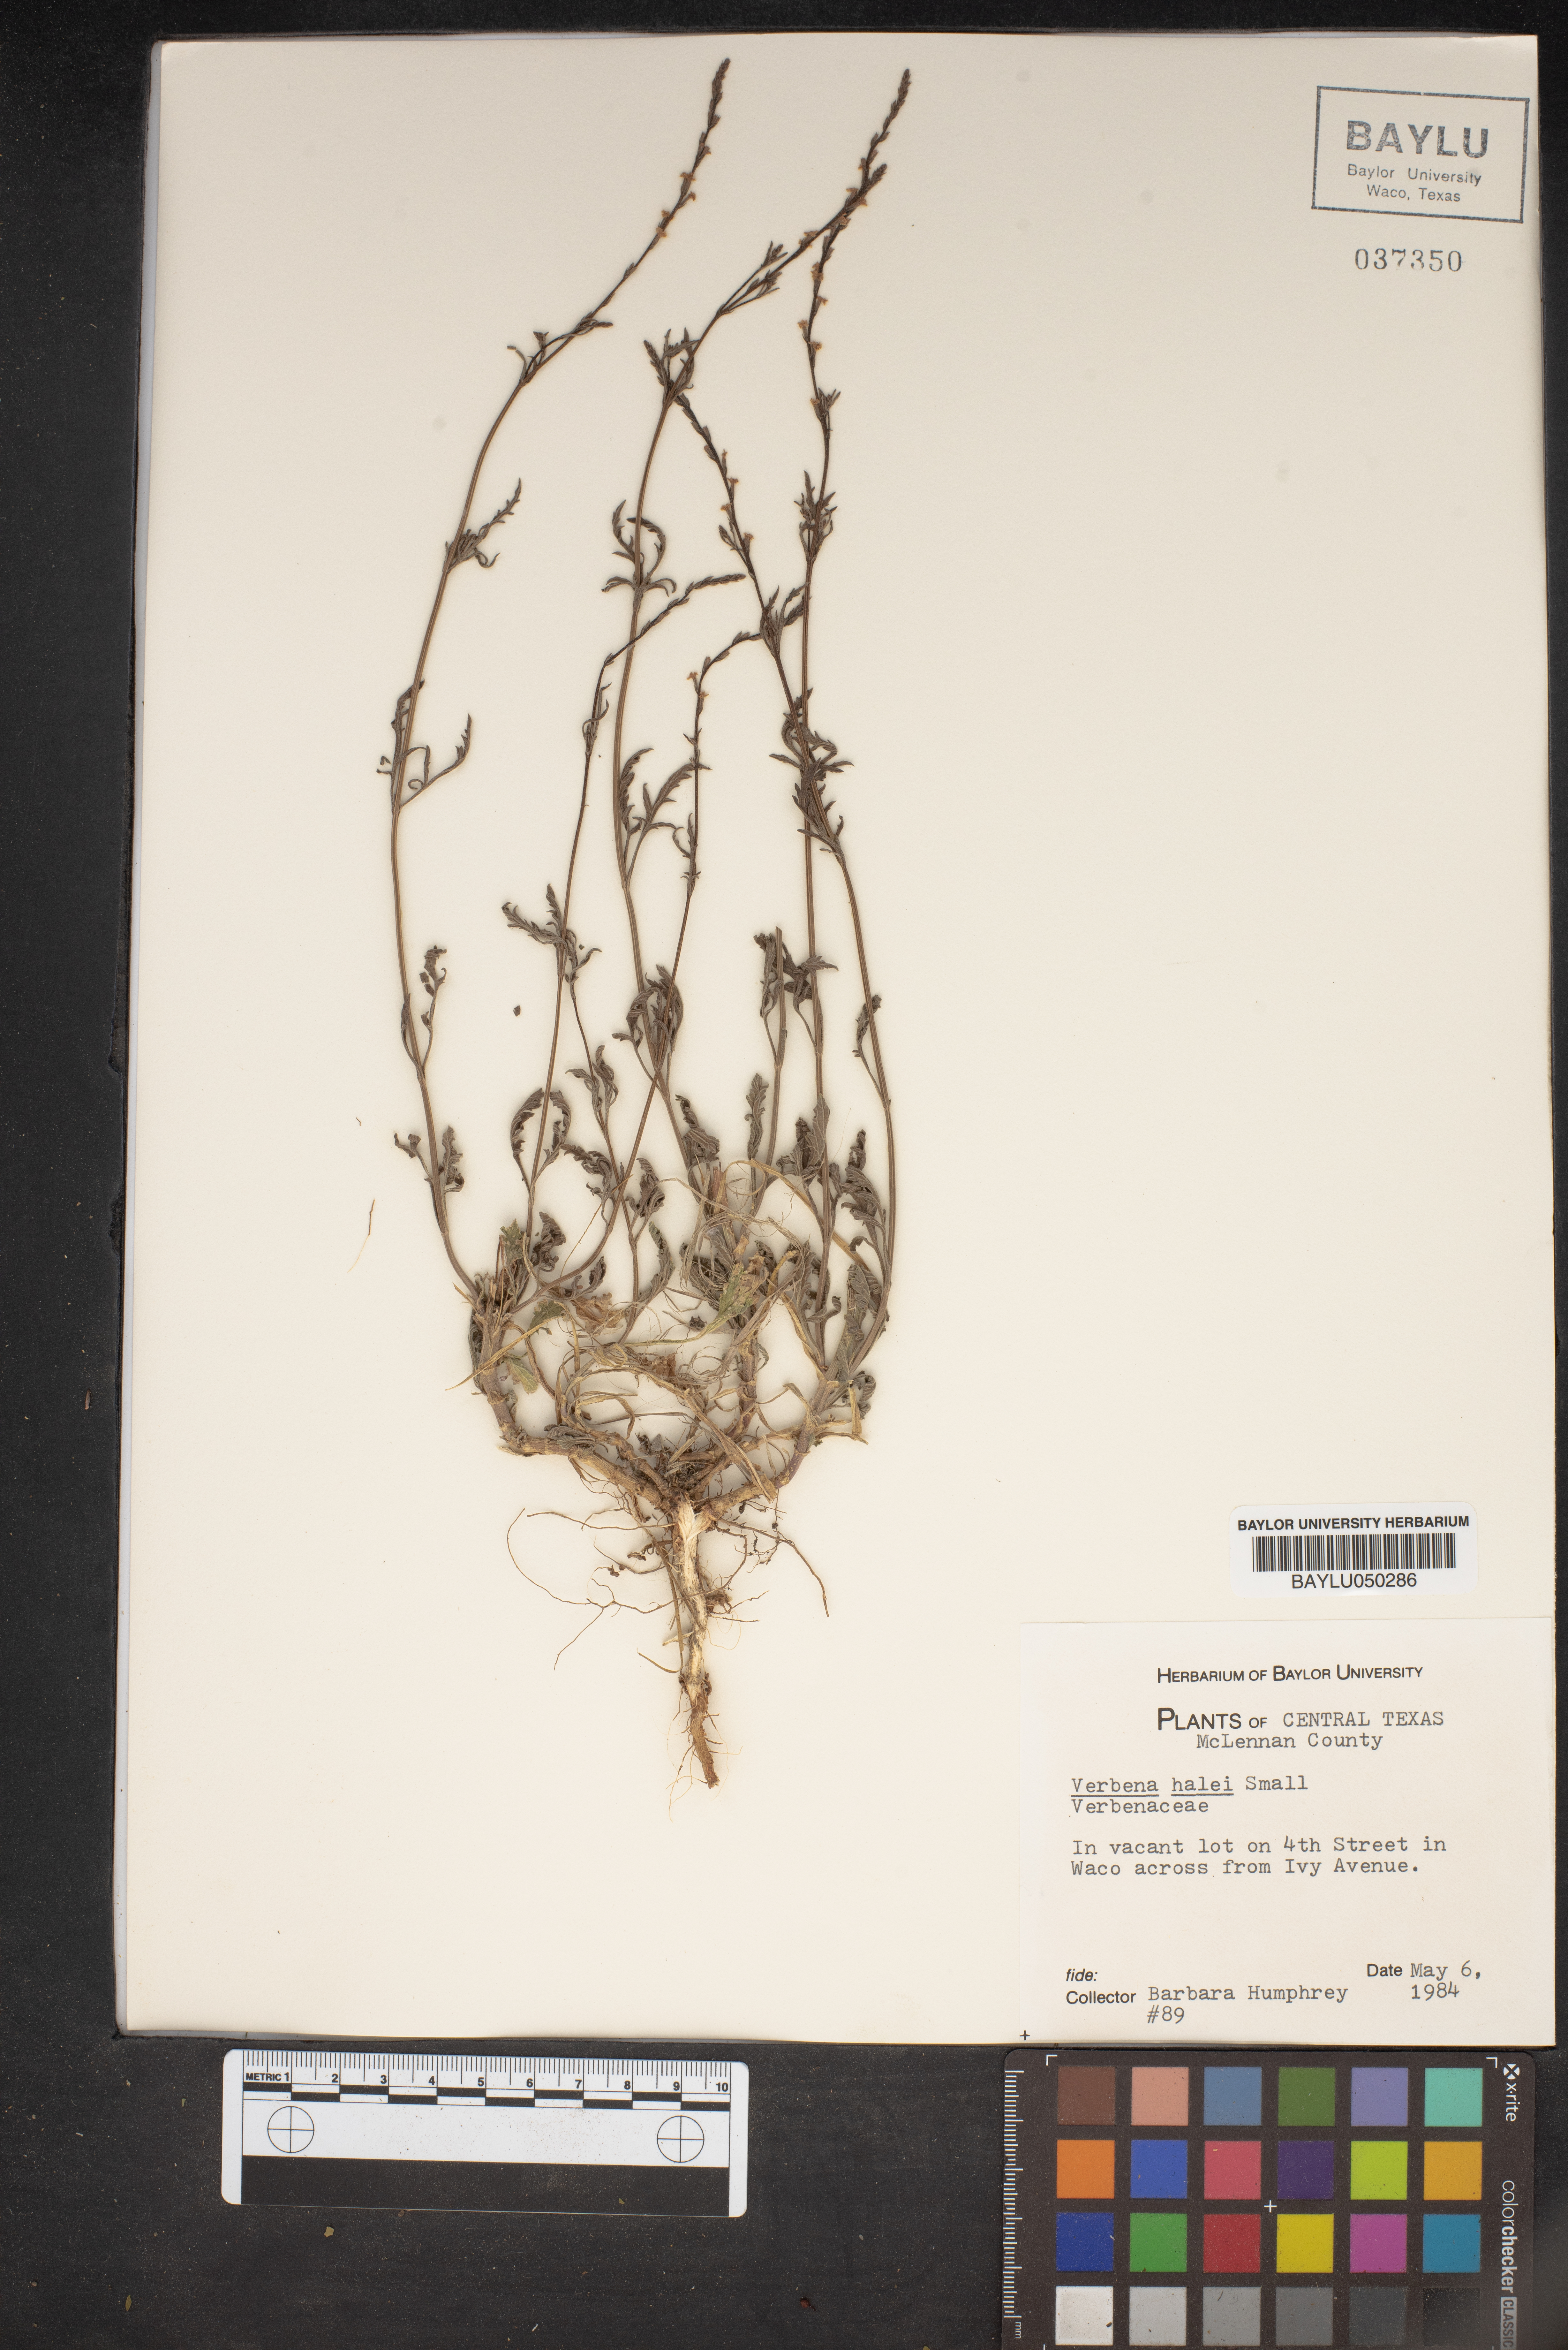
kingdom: Plantae
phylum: Tracheophyta
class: Magnoliopsida
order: Lamiales
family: Verbenaceae
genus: Verbena
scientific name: Verbena halei
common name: Texas vervain
